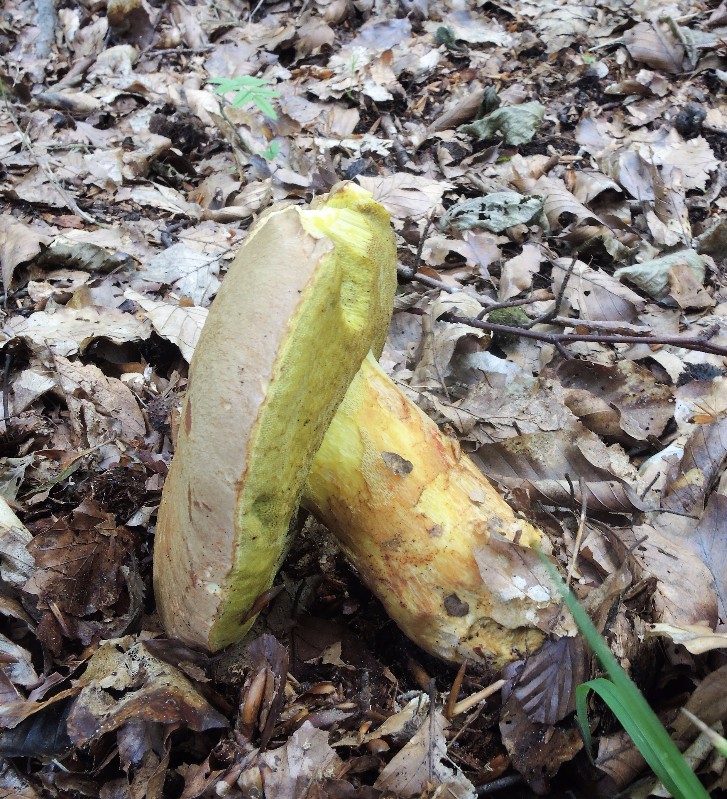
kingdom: Fungi
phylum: Basidiomycota
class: Agaricomycetes
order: Boletales
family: Boletaceae
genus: Butyriboletus
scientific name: Butyriboletus appendiculatus
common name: tenstokket rørhat
